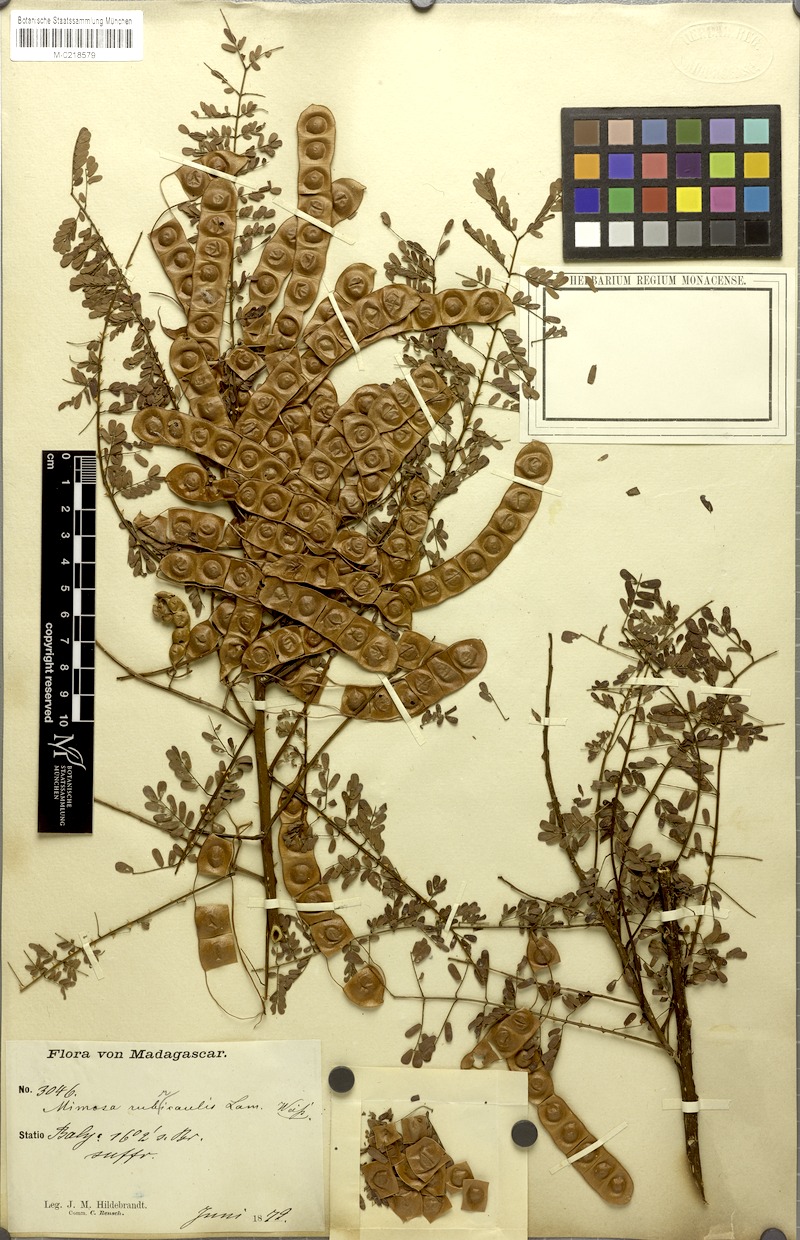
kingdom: Plantae
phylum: Tracheophyta
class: Magnoliopsida
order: Fabales
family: Fabaceae
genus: Mimosa
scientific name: Mimosa suffruticosa
